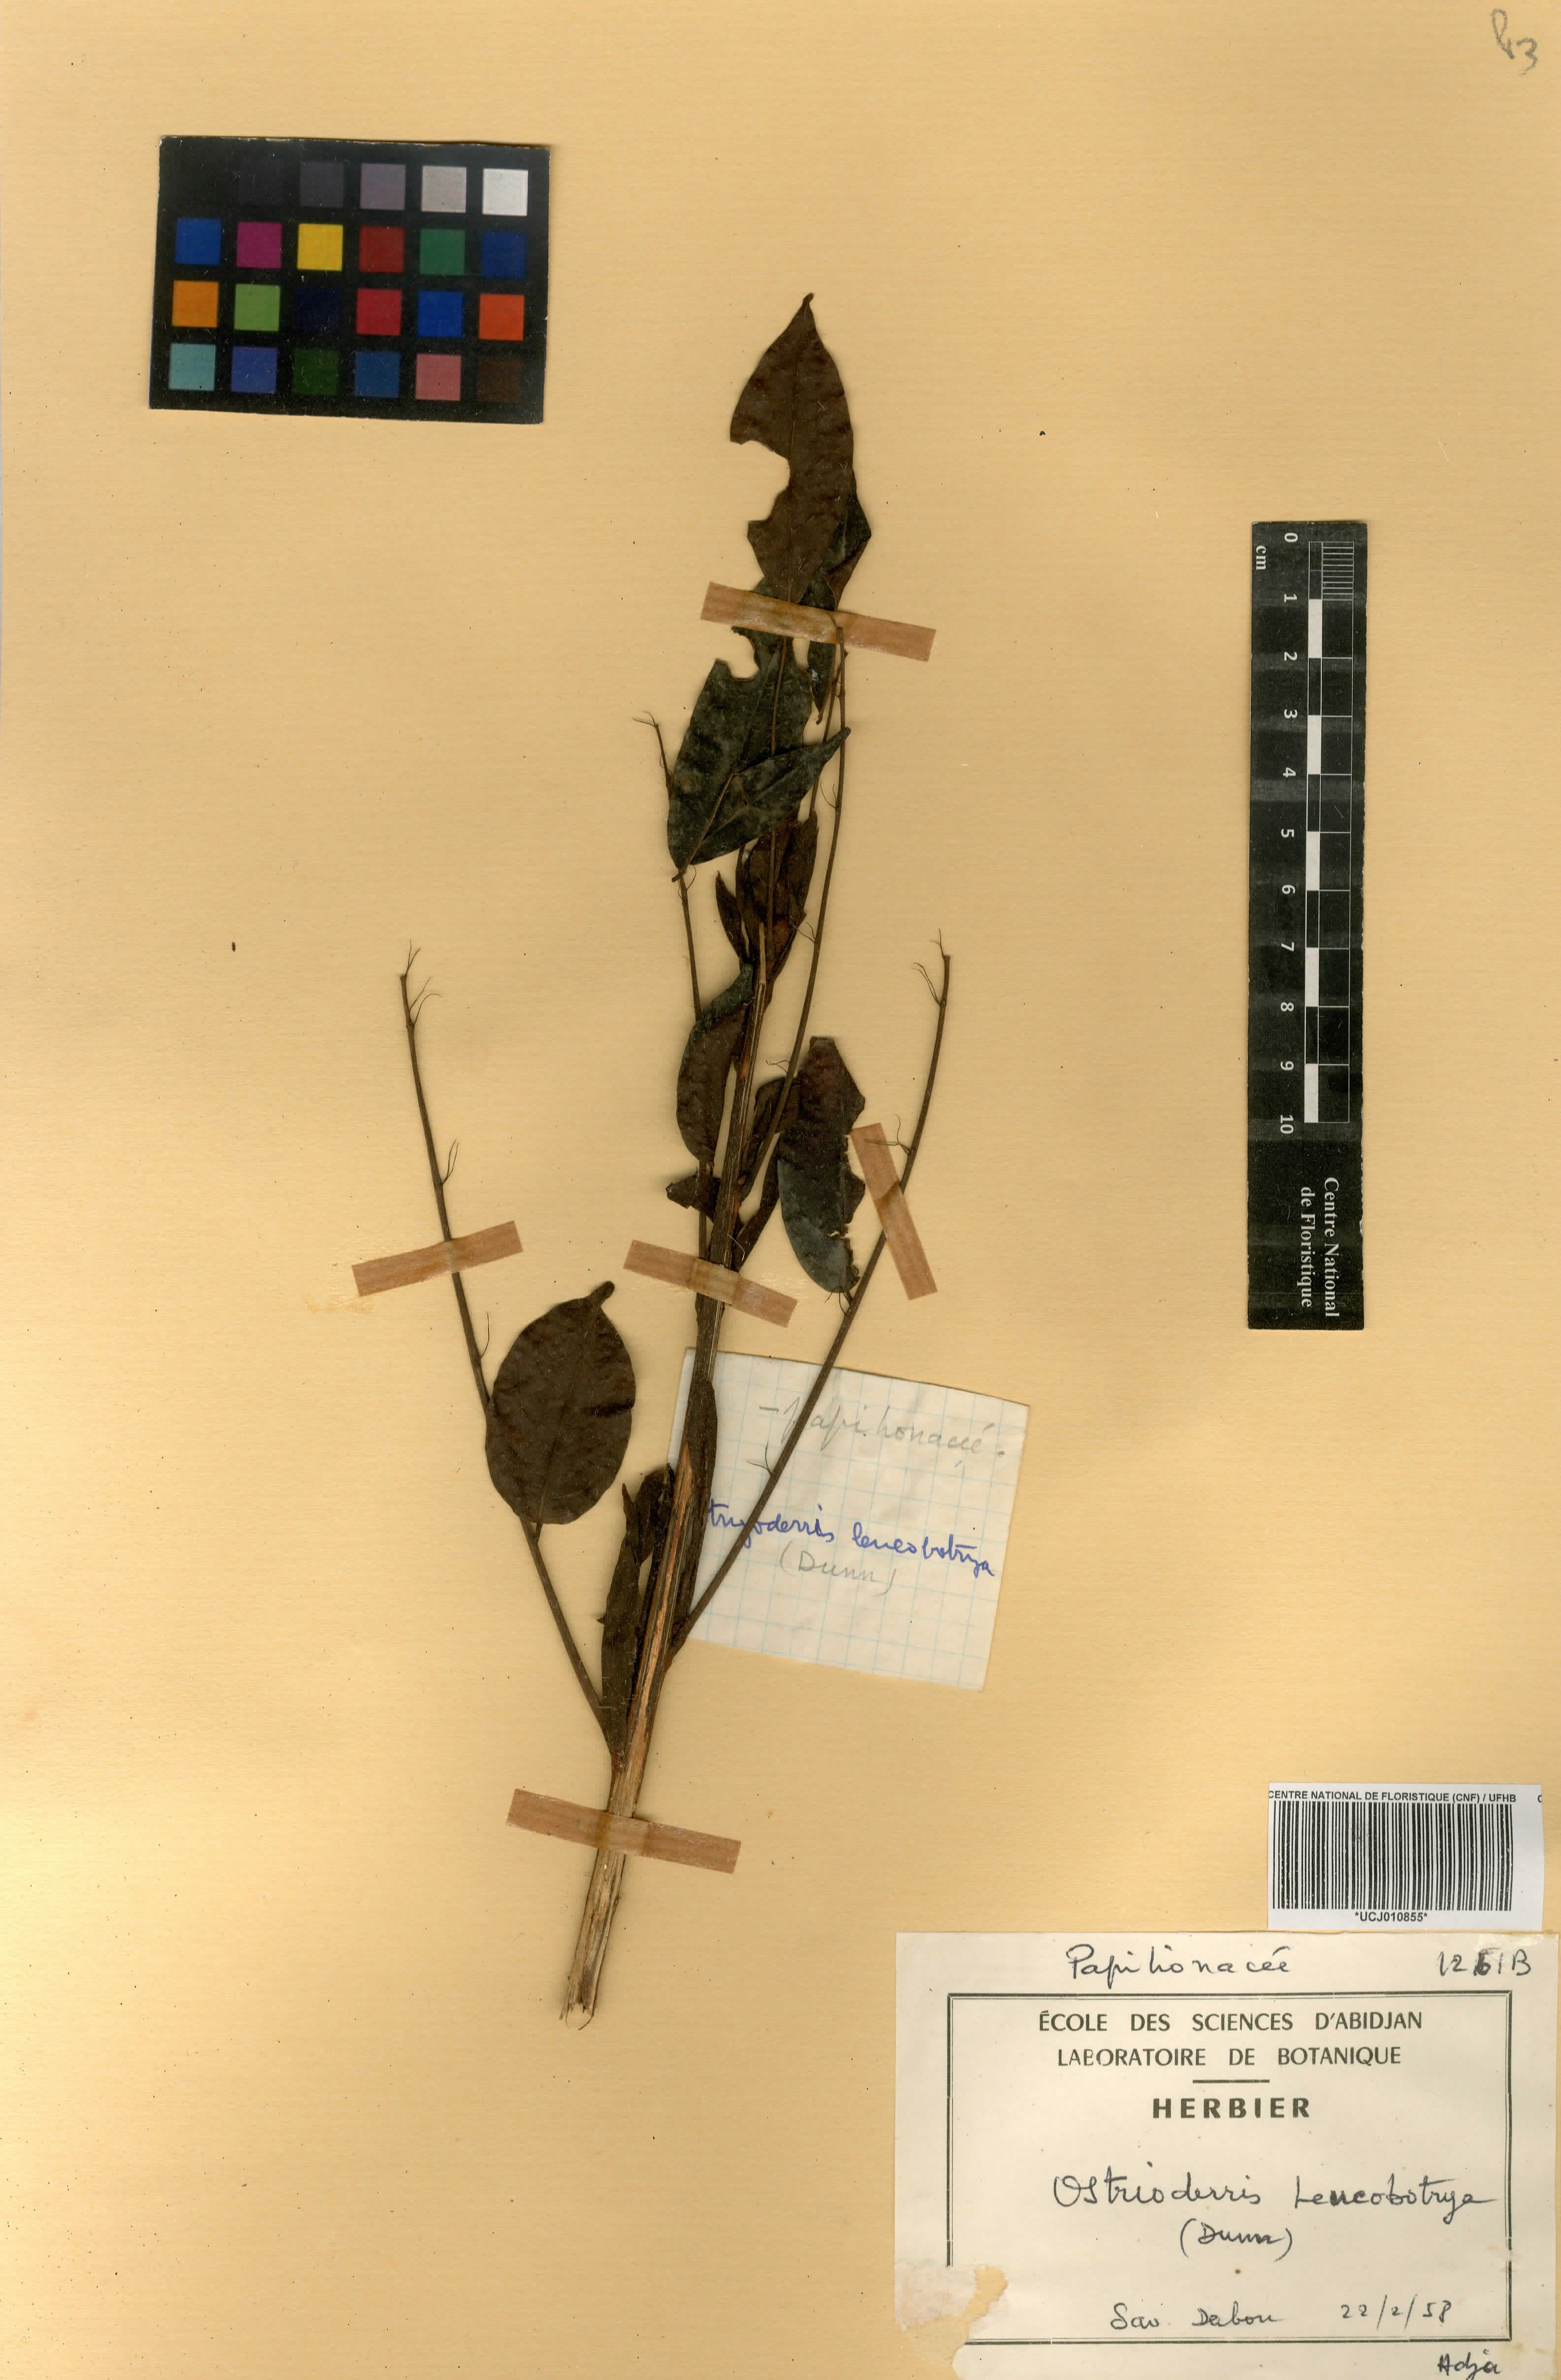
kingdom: Plantae
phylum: Tracheophyta
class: Magnoliopsida
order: Fabales
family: Fabaceae
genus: Aganope
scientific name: Aganope leucobotrya
